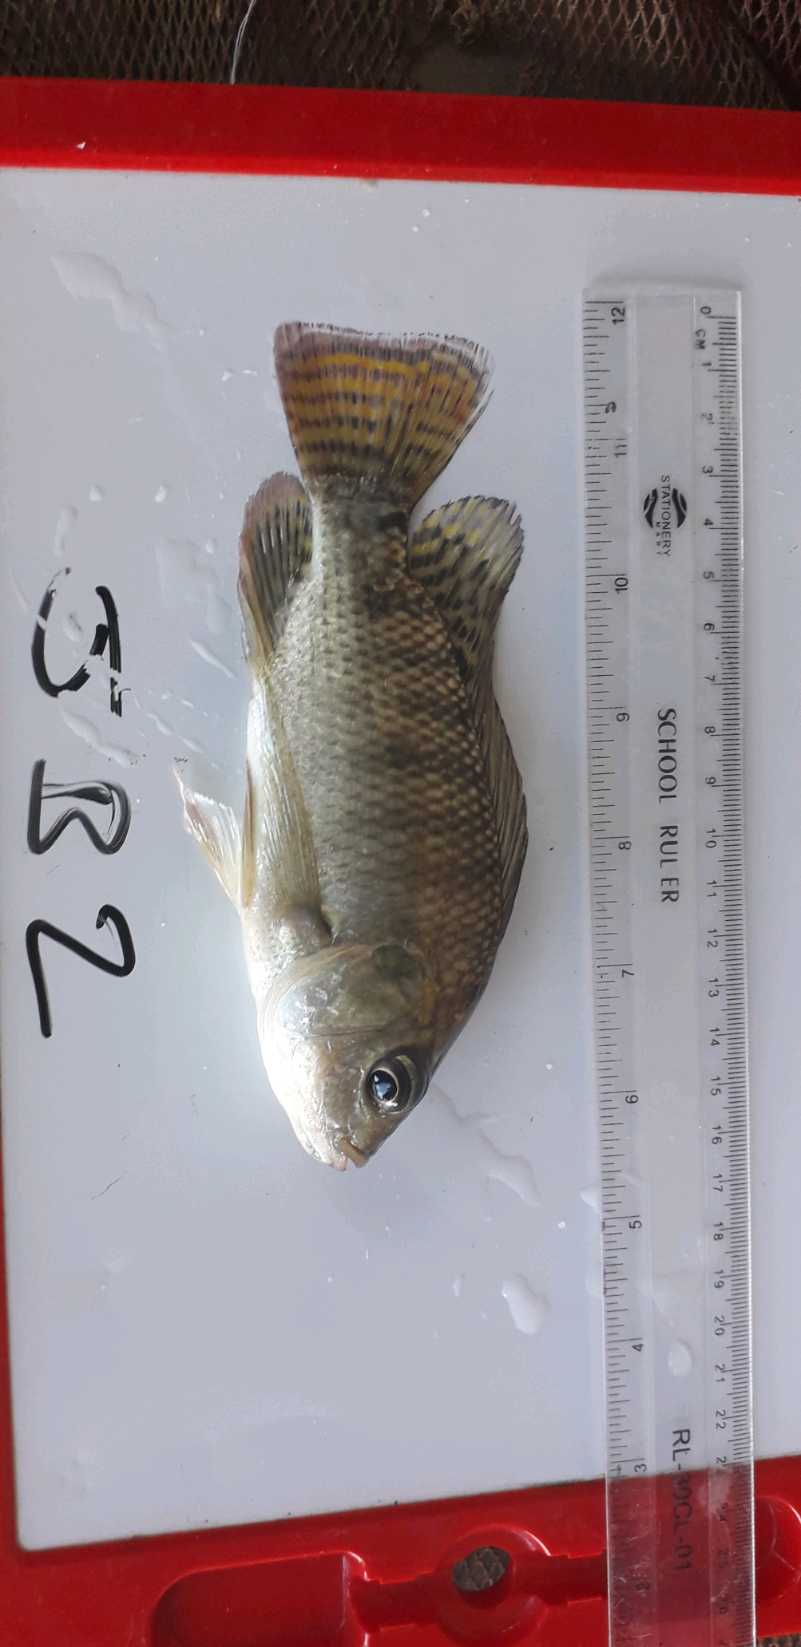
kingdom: Animalia
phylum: Chordata
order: Perciformes
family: Cichlidae
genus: Oreochromis
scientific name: Oreochromis niloticus
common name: Nile tilapia
